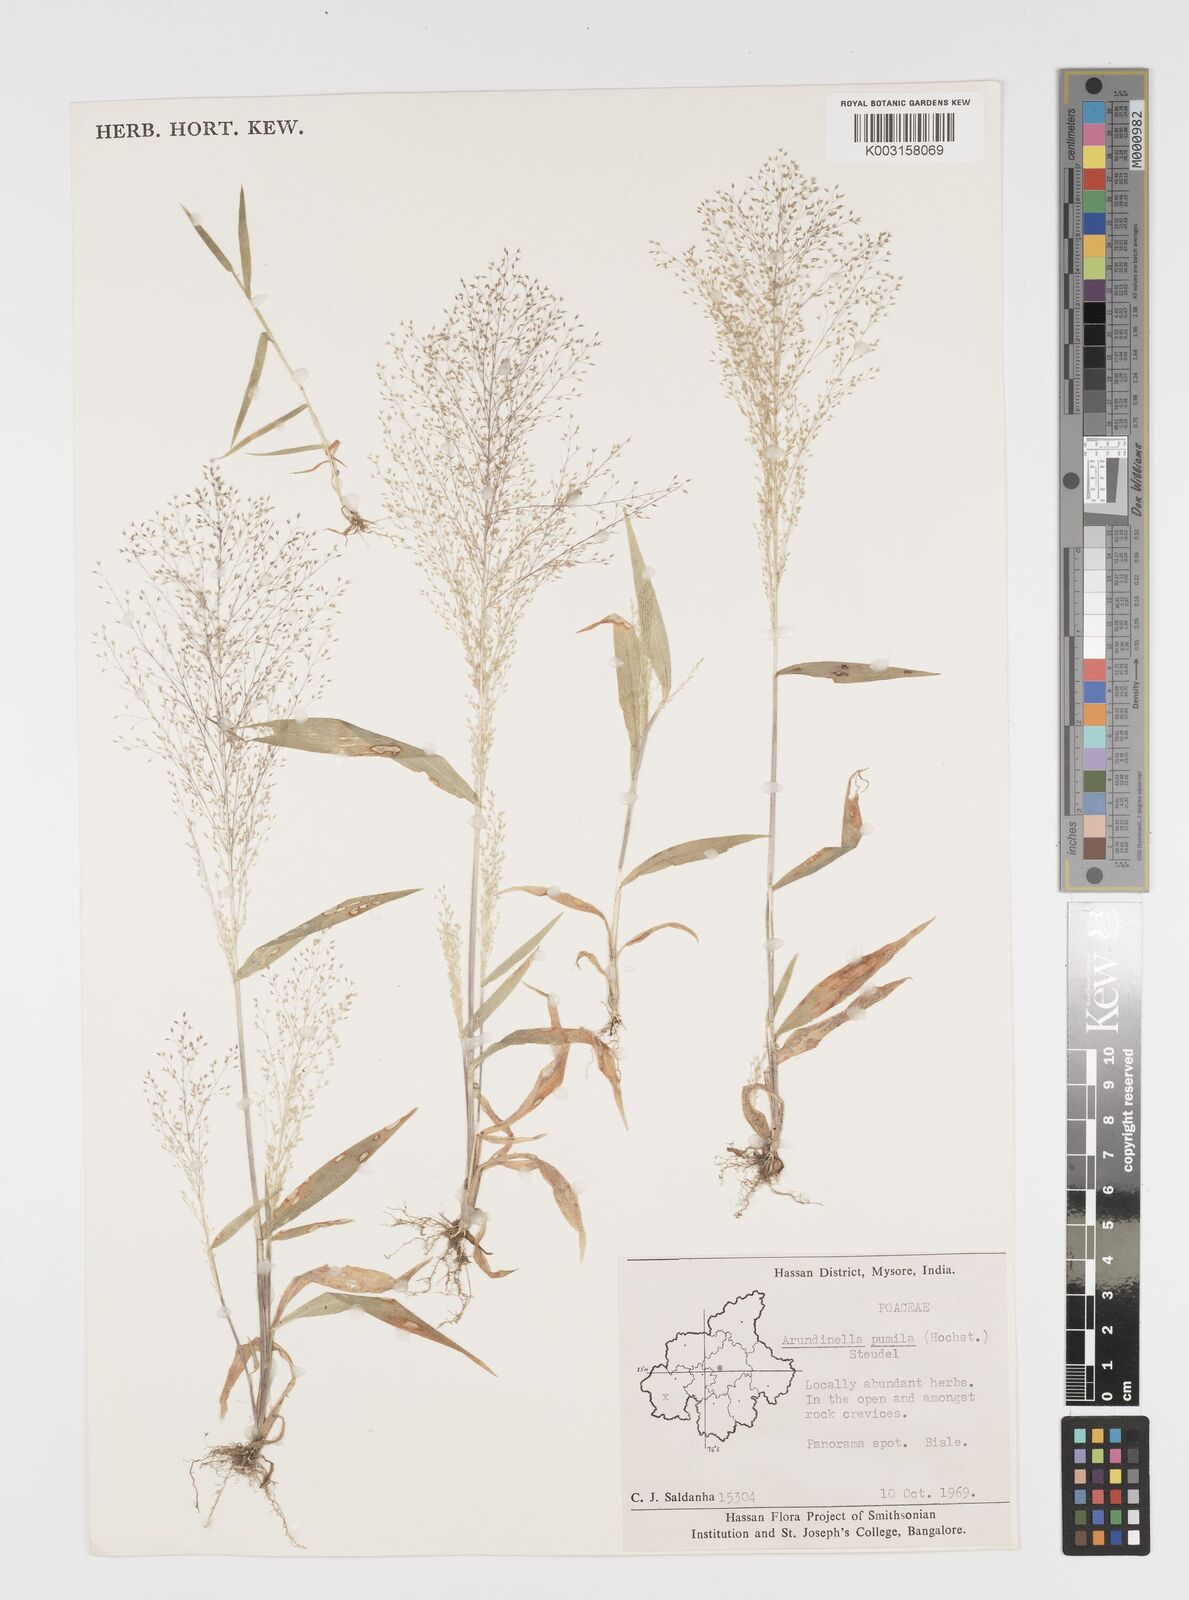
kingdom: Plantae
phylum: Tracheophyta
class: Liliopsida
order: Poales
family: Poaceae
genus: Arundinella
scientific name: Arundinella pumila
